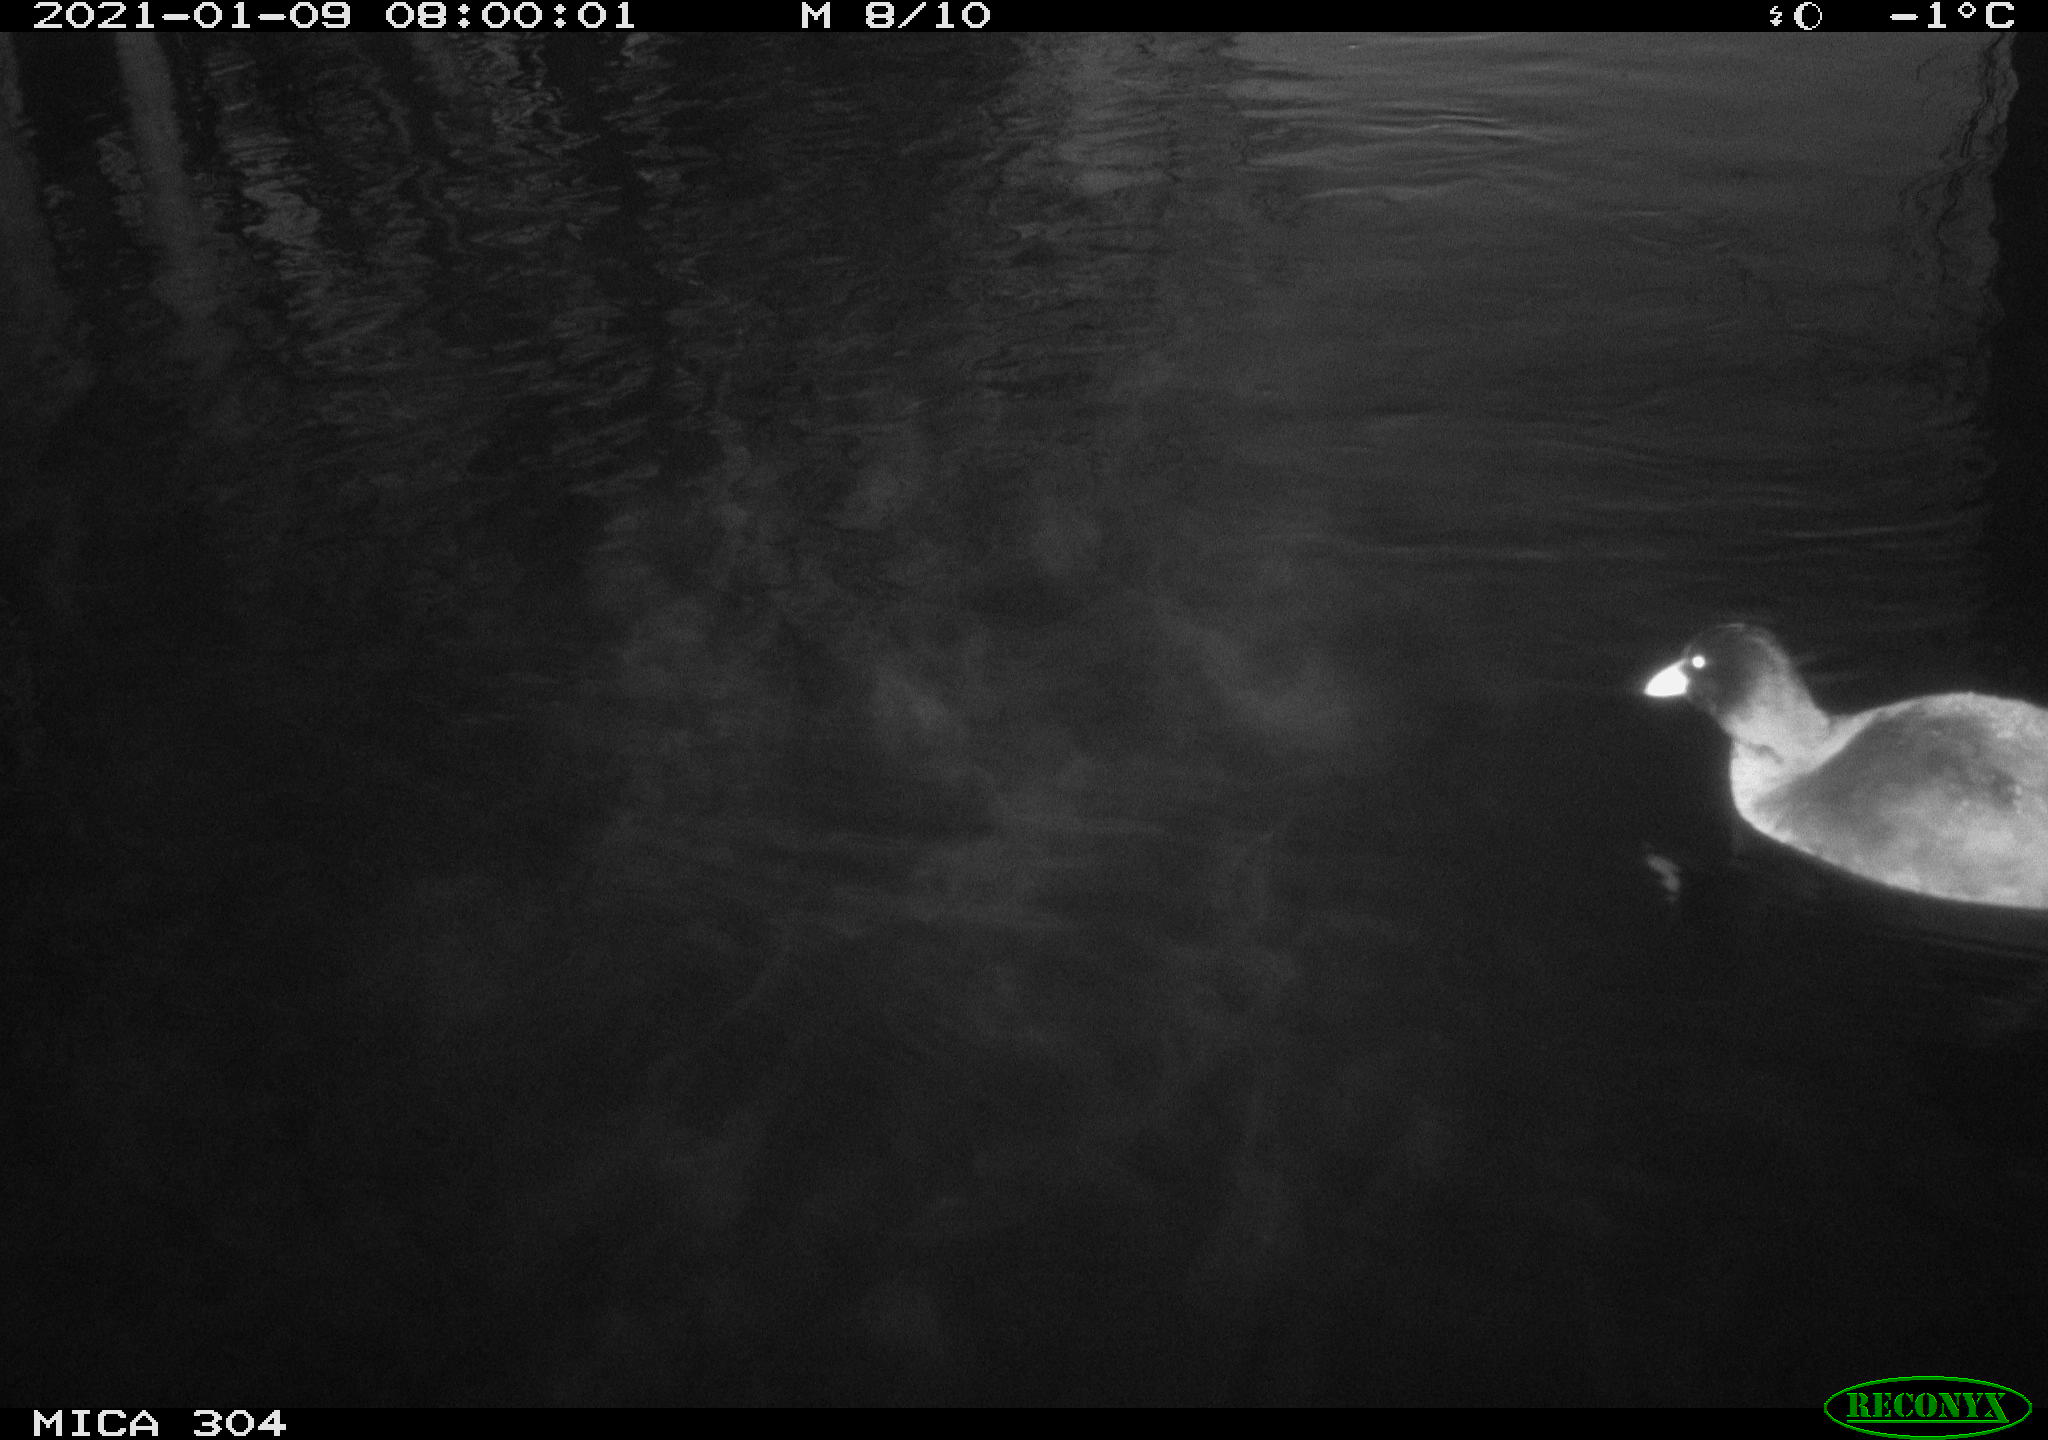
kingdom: Animalia
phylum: Chordata
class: Aves
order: Gruiformes
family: Rallidae
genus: Fulica
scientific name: Fulica atra
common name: Eurasian coot
